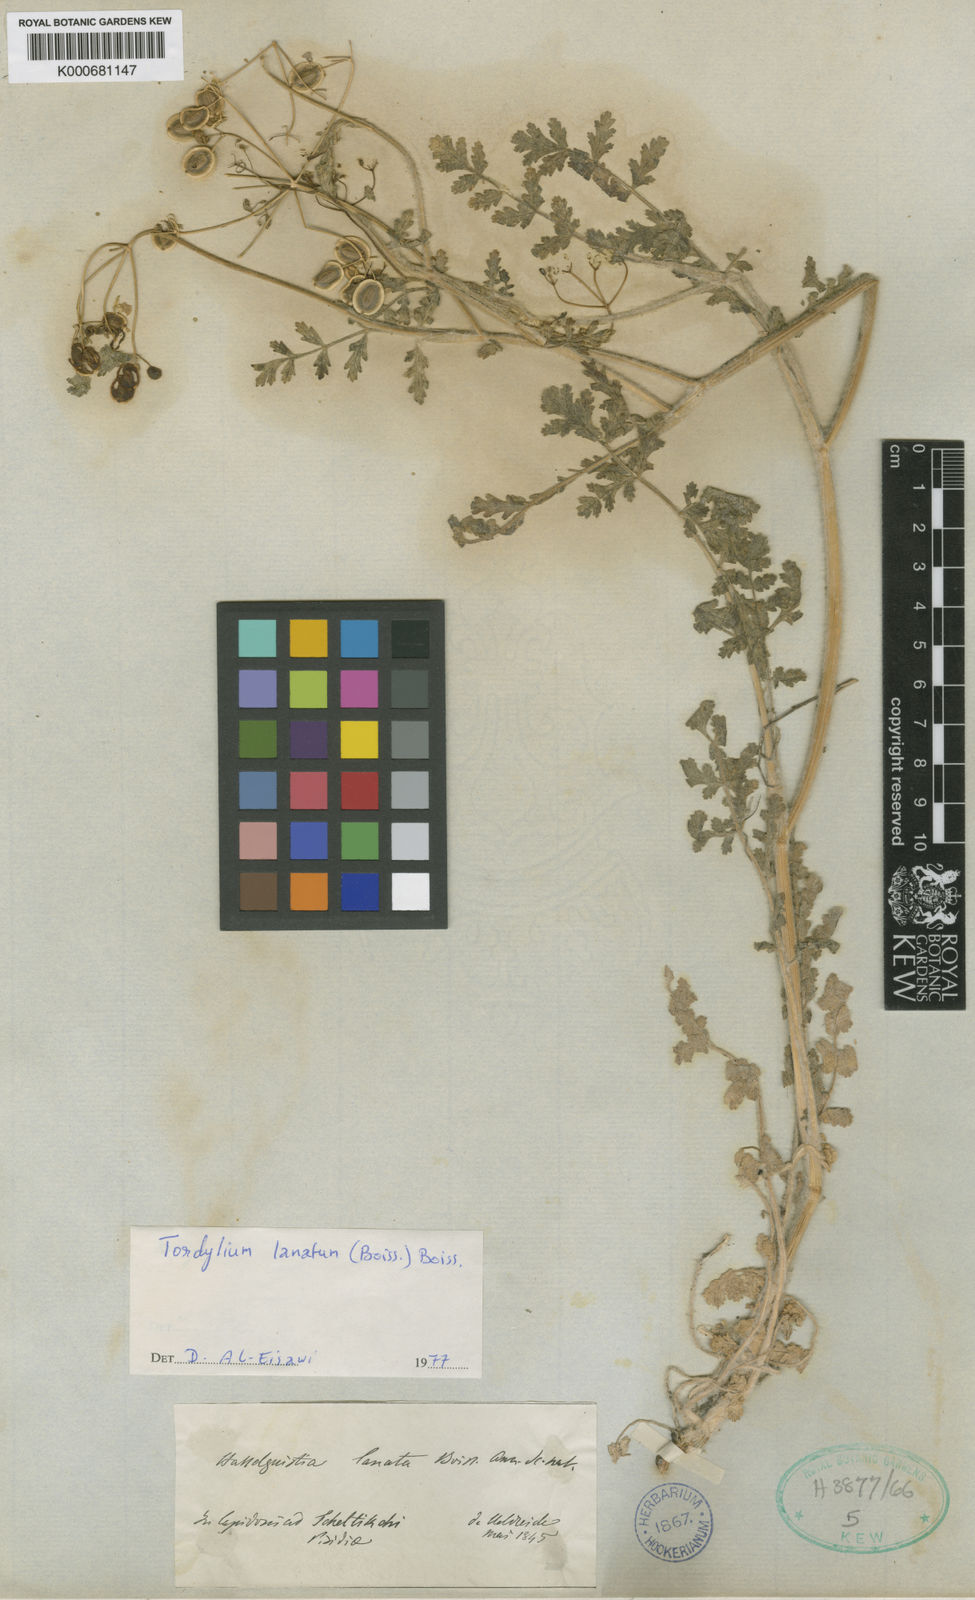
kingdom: Plantae
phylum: Tracheophyta
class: Magnoliopsida
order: Apiales
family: Apiaceae
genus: Tordylium
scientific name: Tordylium lanatum
